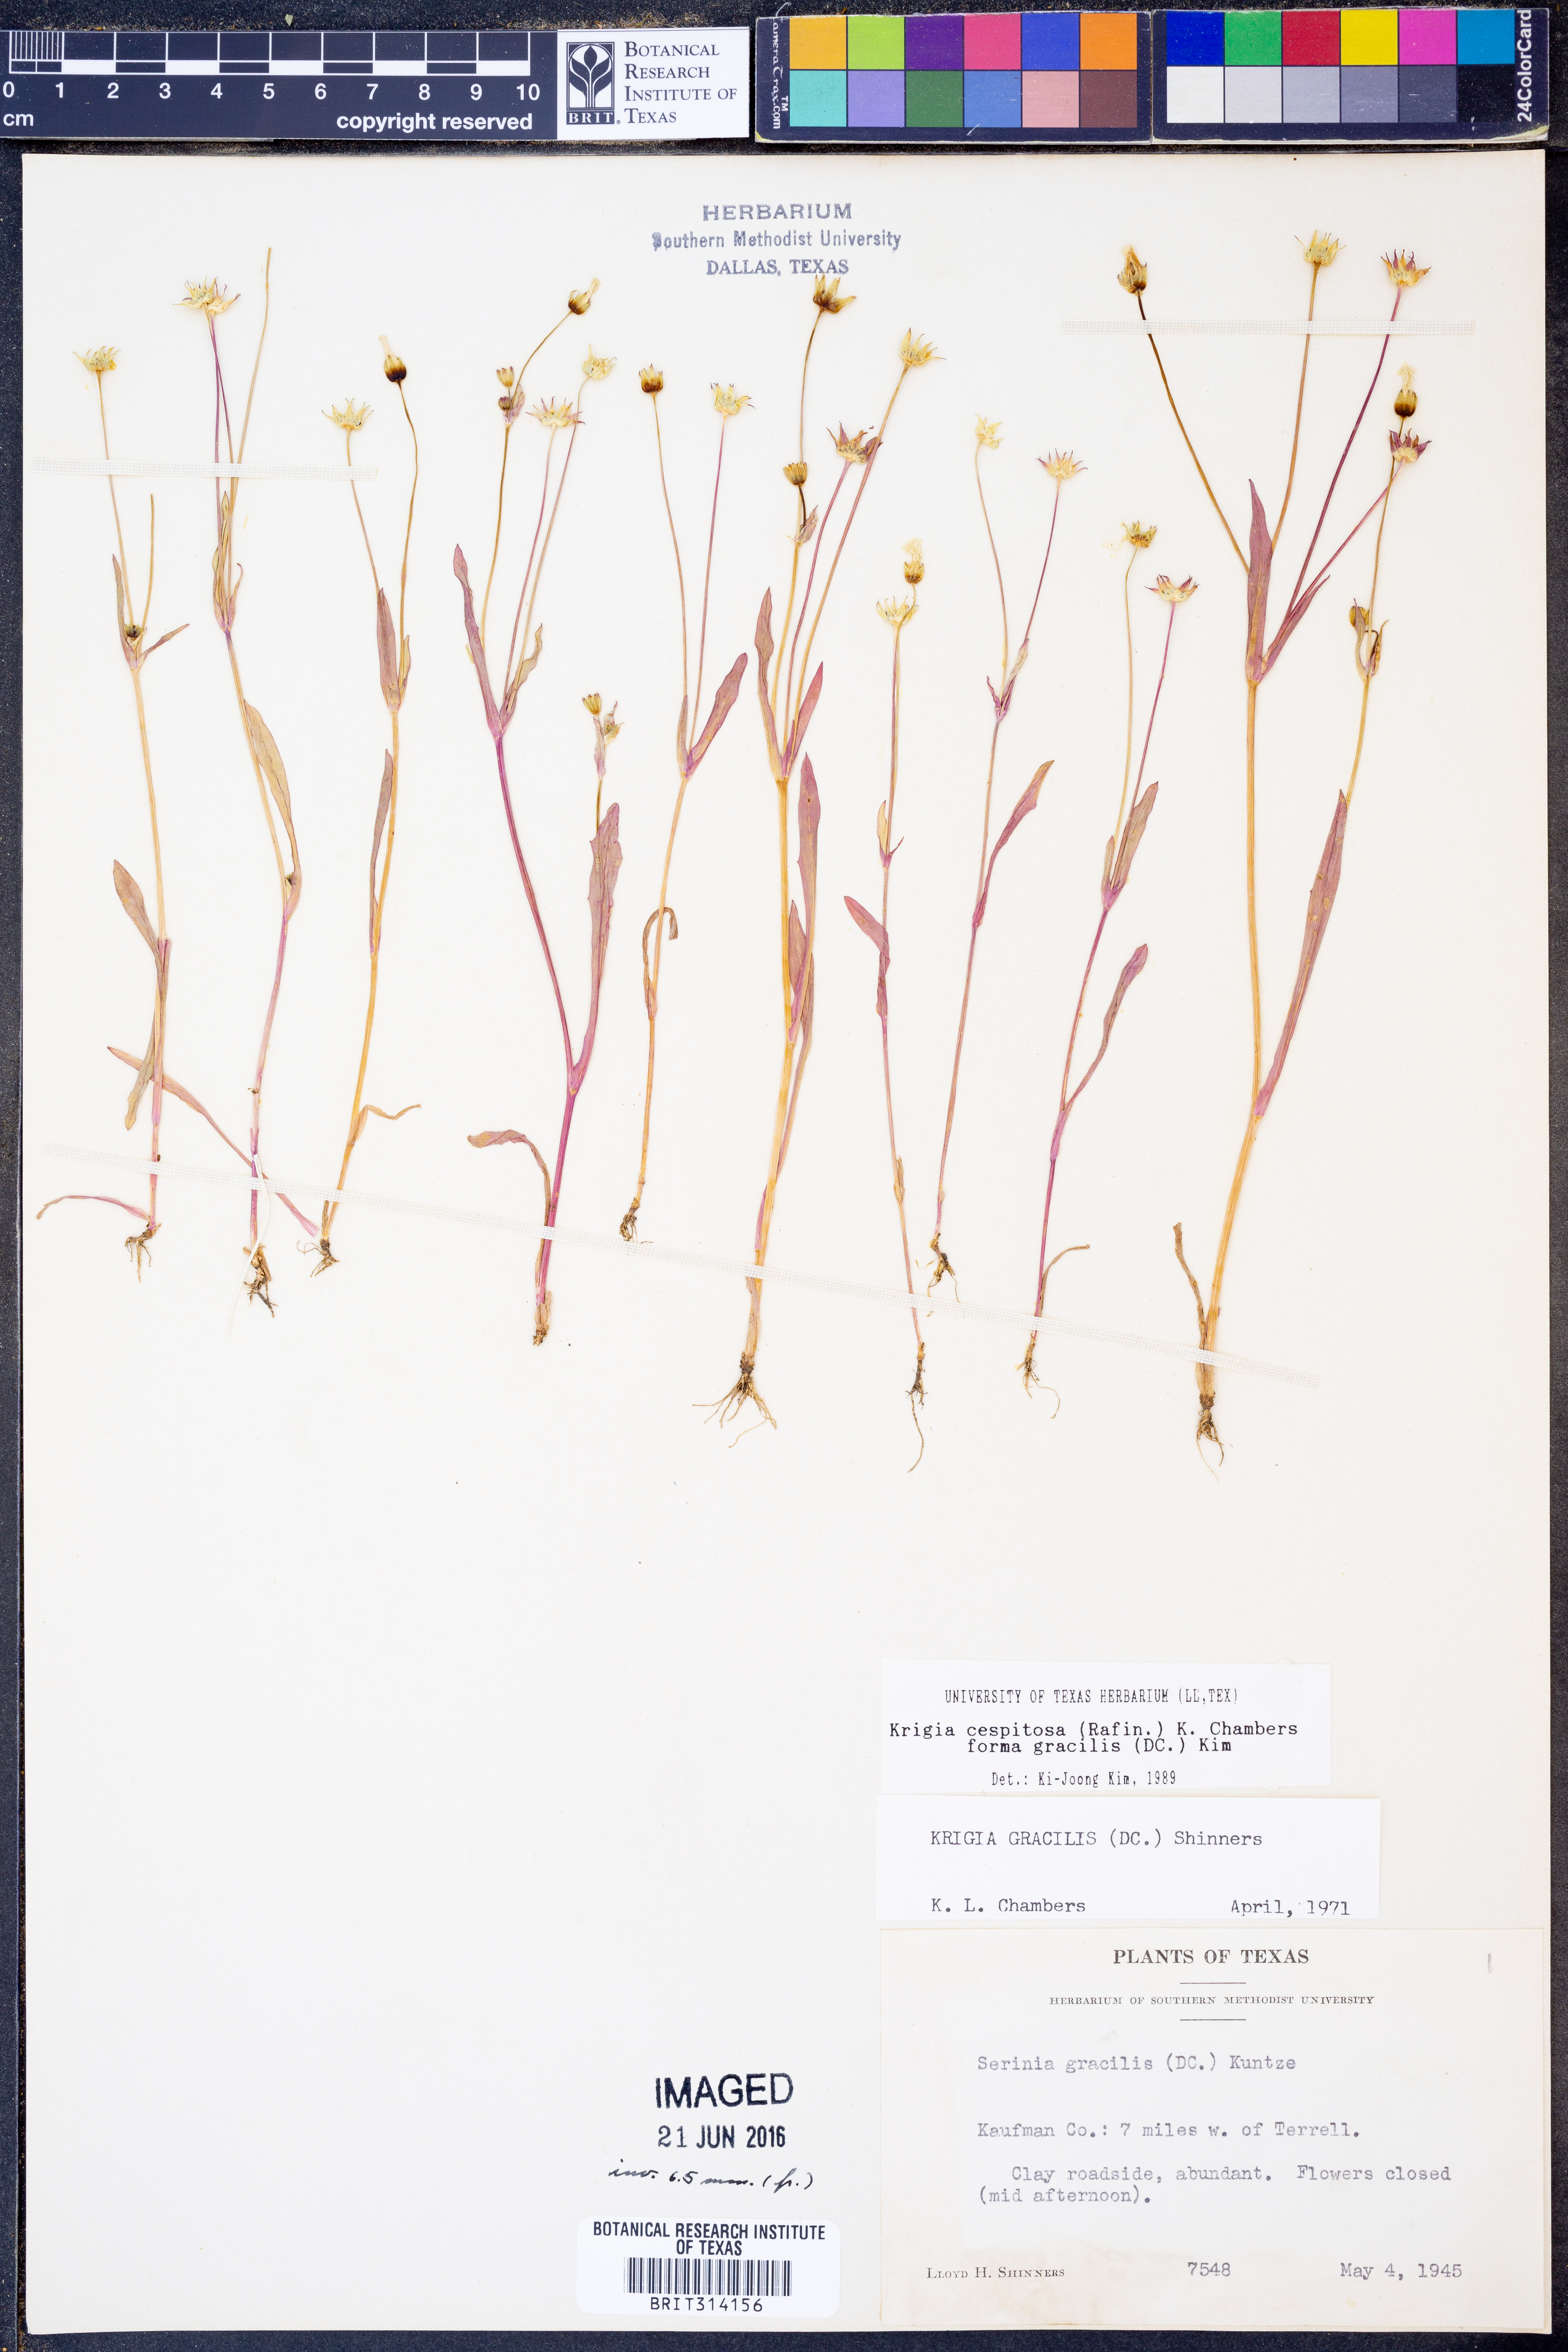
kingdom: Plantae
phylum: Tracheophyta
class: Magnoliopsida
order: Asterales
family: Asteraceae
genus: Krigia
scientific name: Krigia cespitosa
